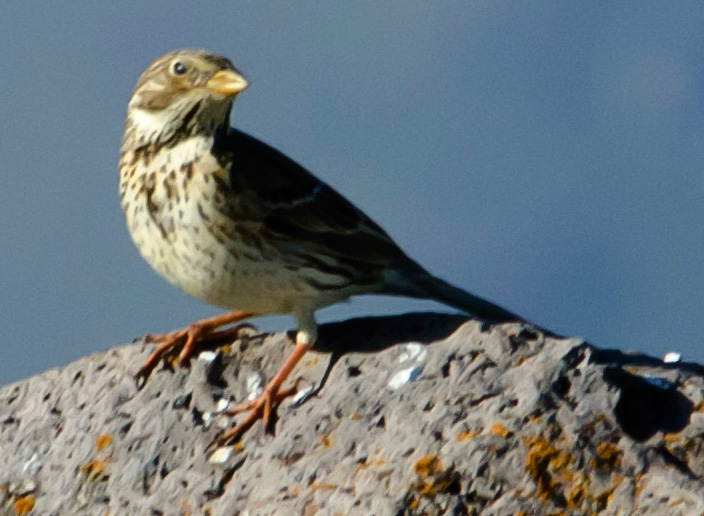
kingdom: Animalia
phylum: Chordata
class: Aves
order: Passeriformes
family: Emberizidae
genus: Emberiza
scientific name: Emberiza calandra
